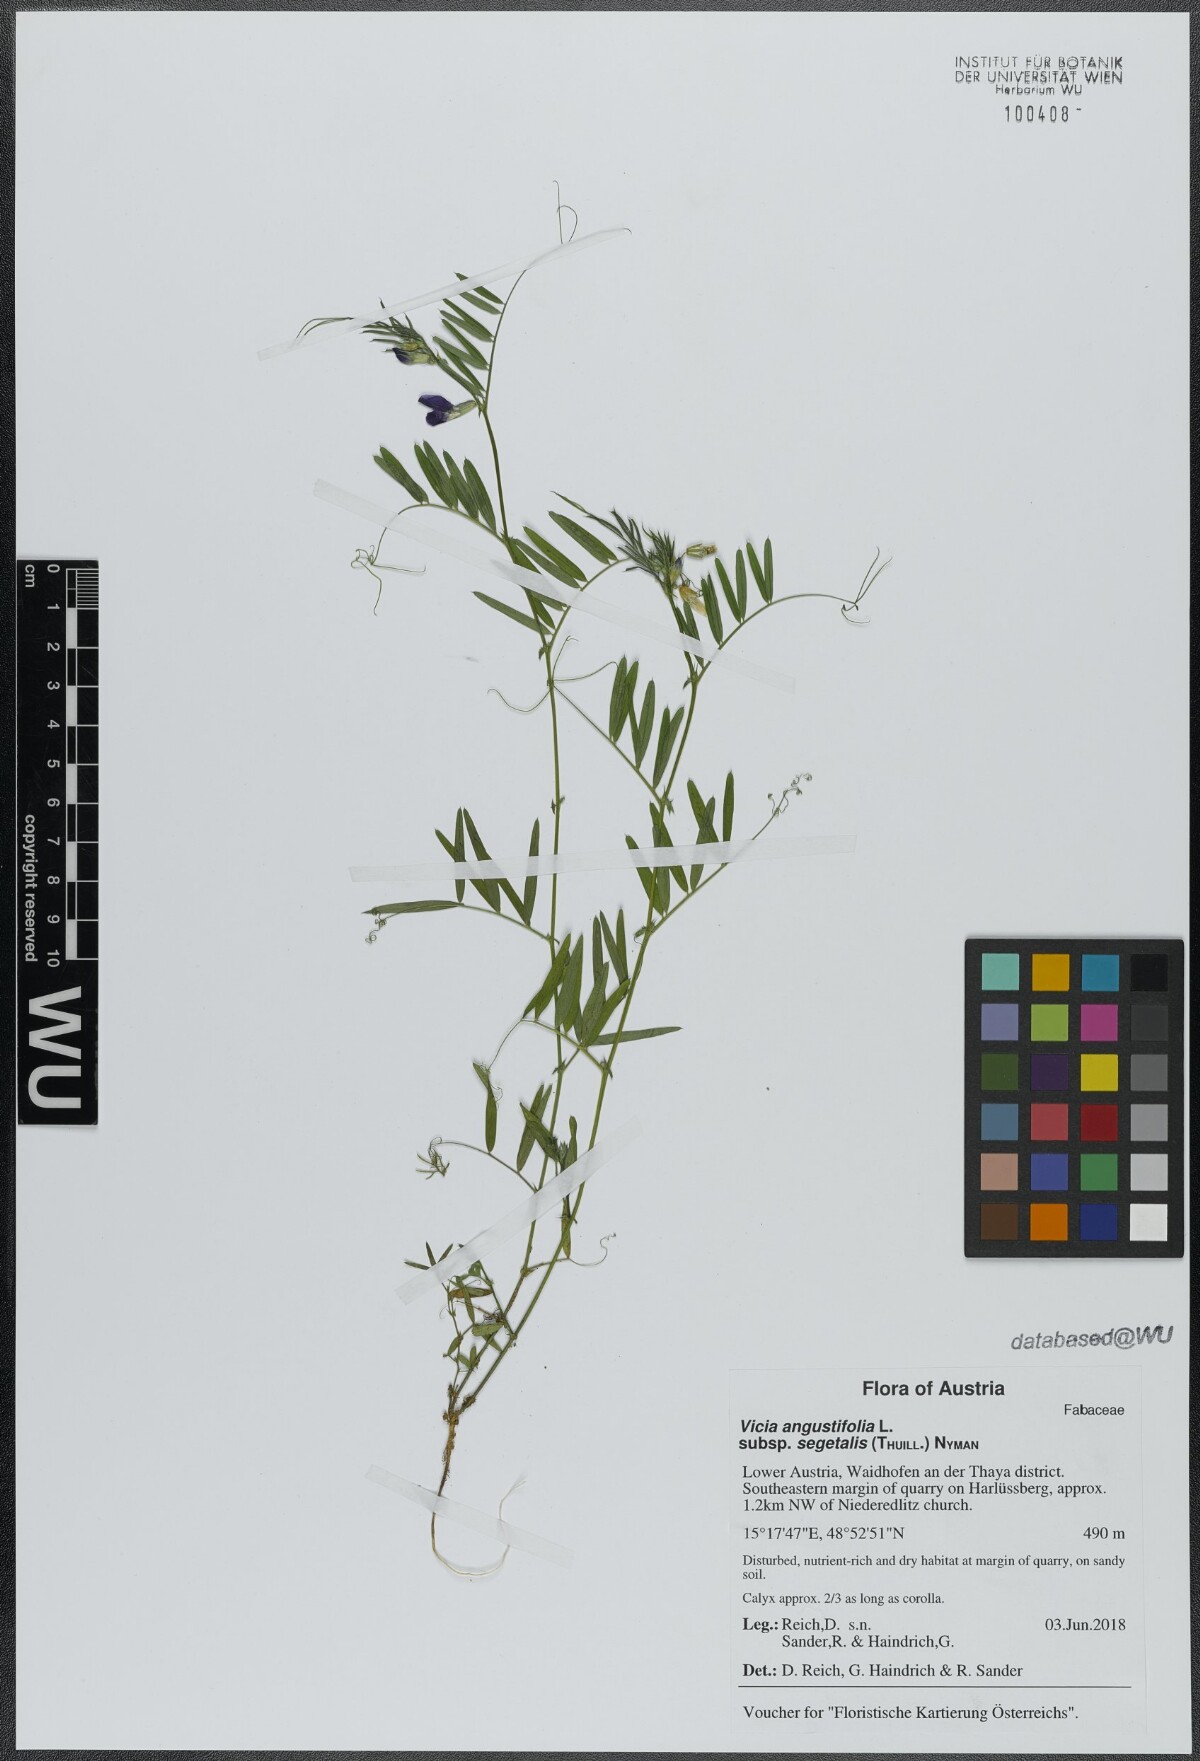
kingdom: Plantae
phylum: Tracheophyta
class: Magnoliopsida
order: Fabales
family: Fabaceae
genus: Vicia
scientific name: Vicia sativa
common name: Garden vetch
